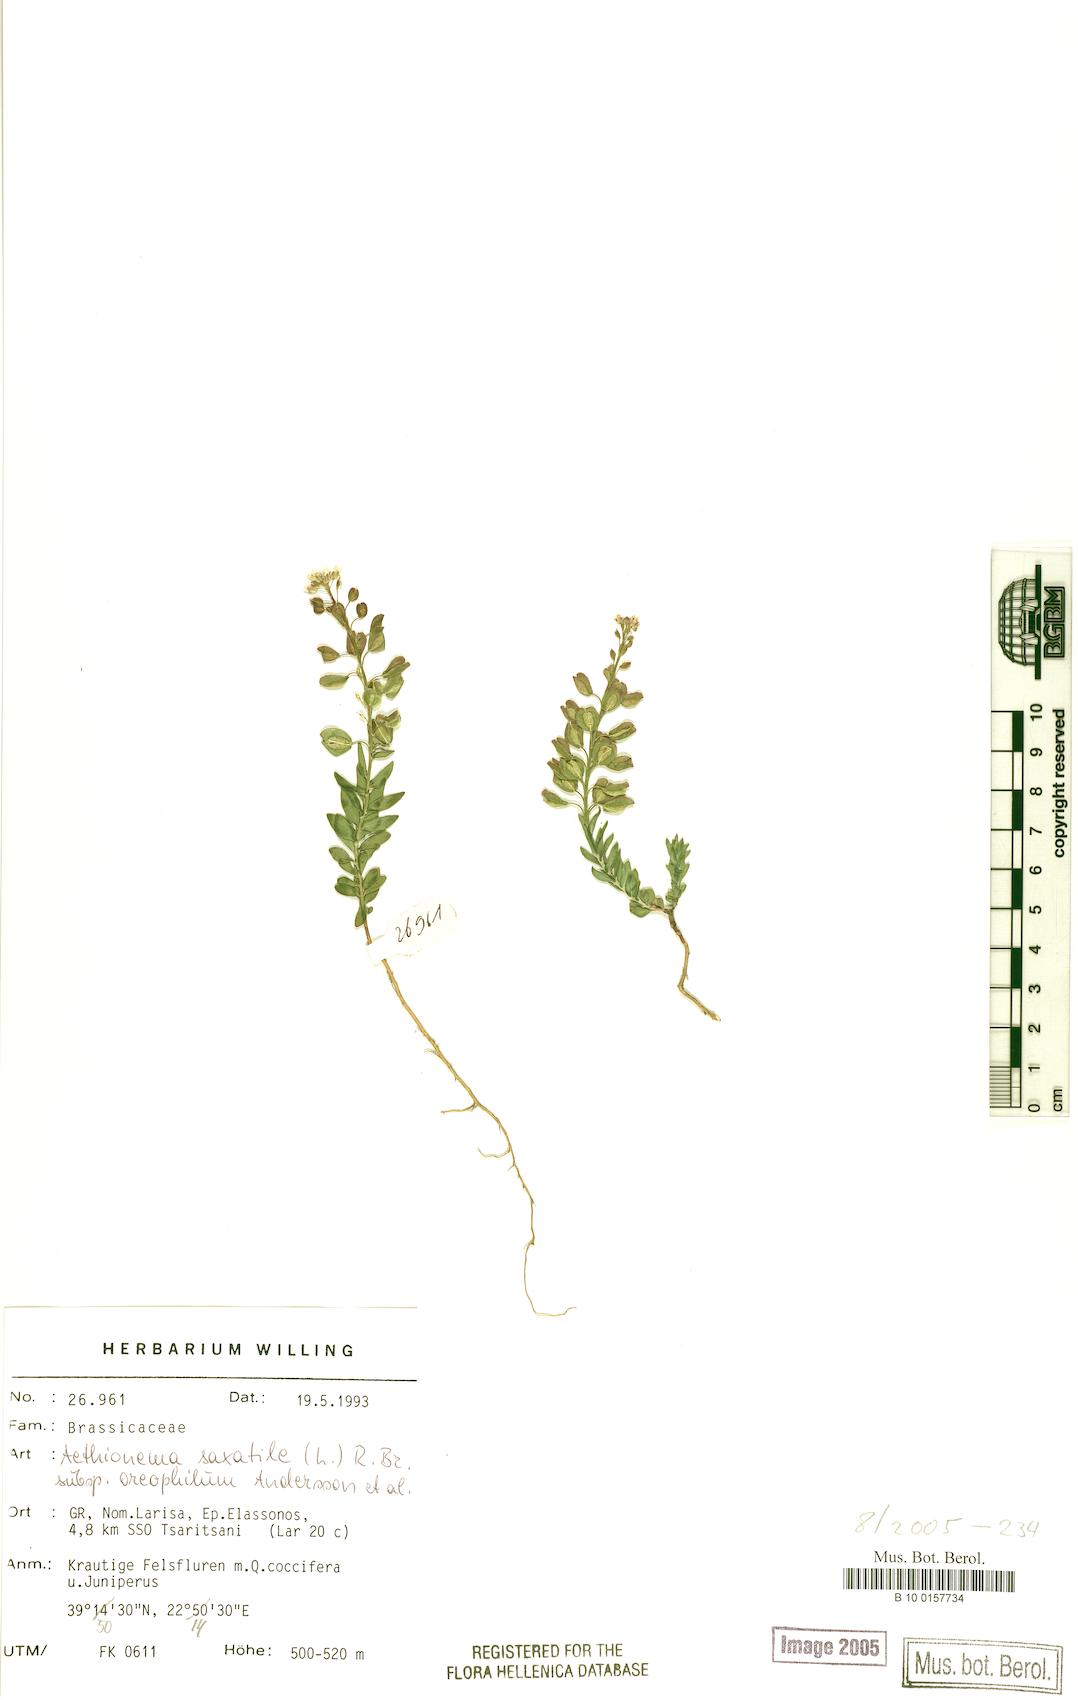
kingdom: Plantae
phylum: Tracheophyta
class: Magnoliopsida
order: Brassicales
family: Brassicaceae
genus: Aethionema
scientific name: Aethionema saxatile
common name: Burnt candytuft
